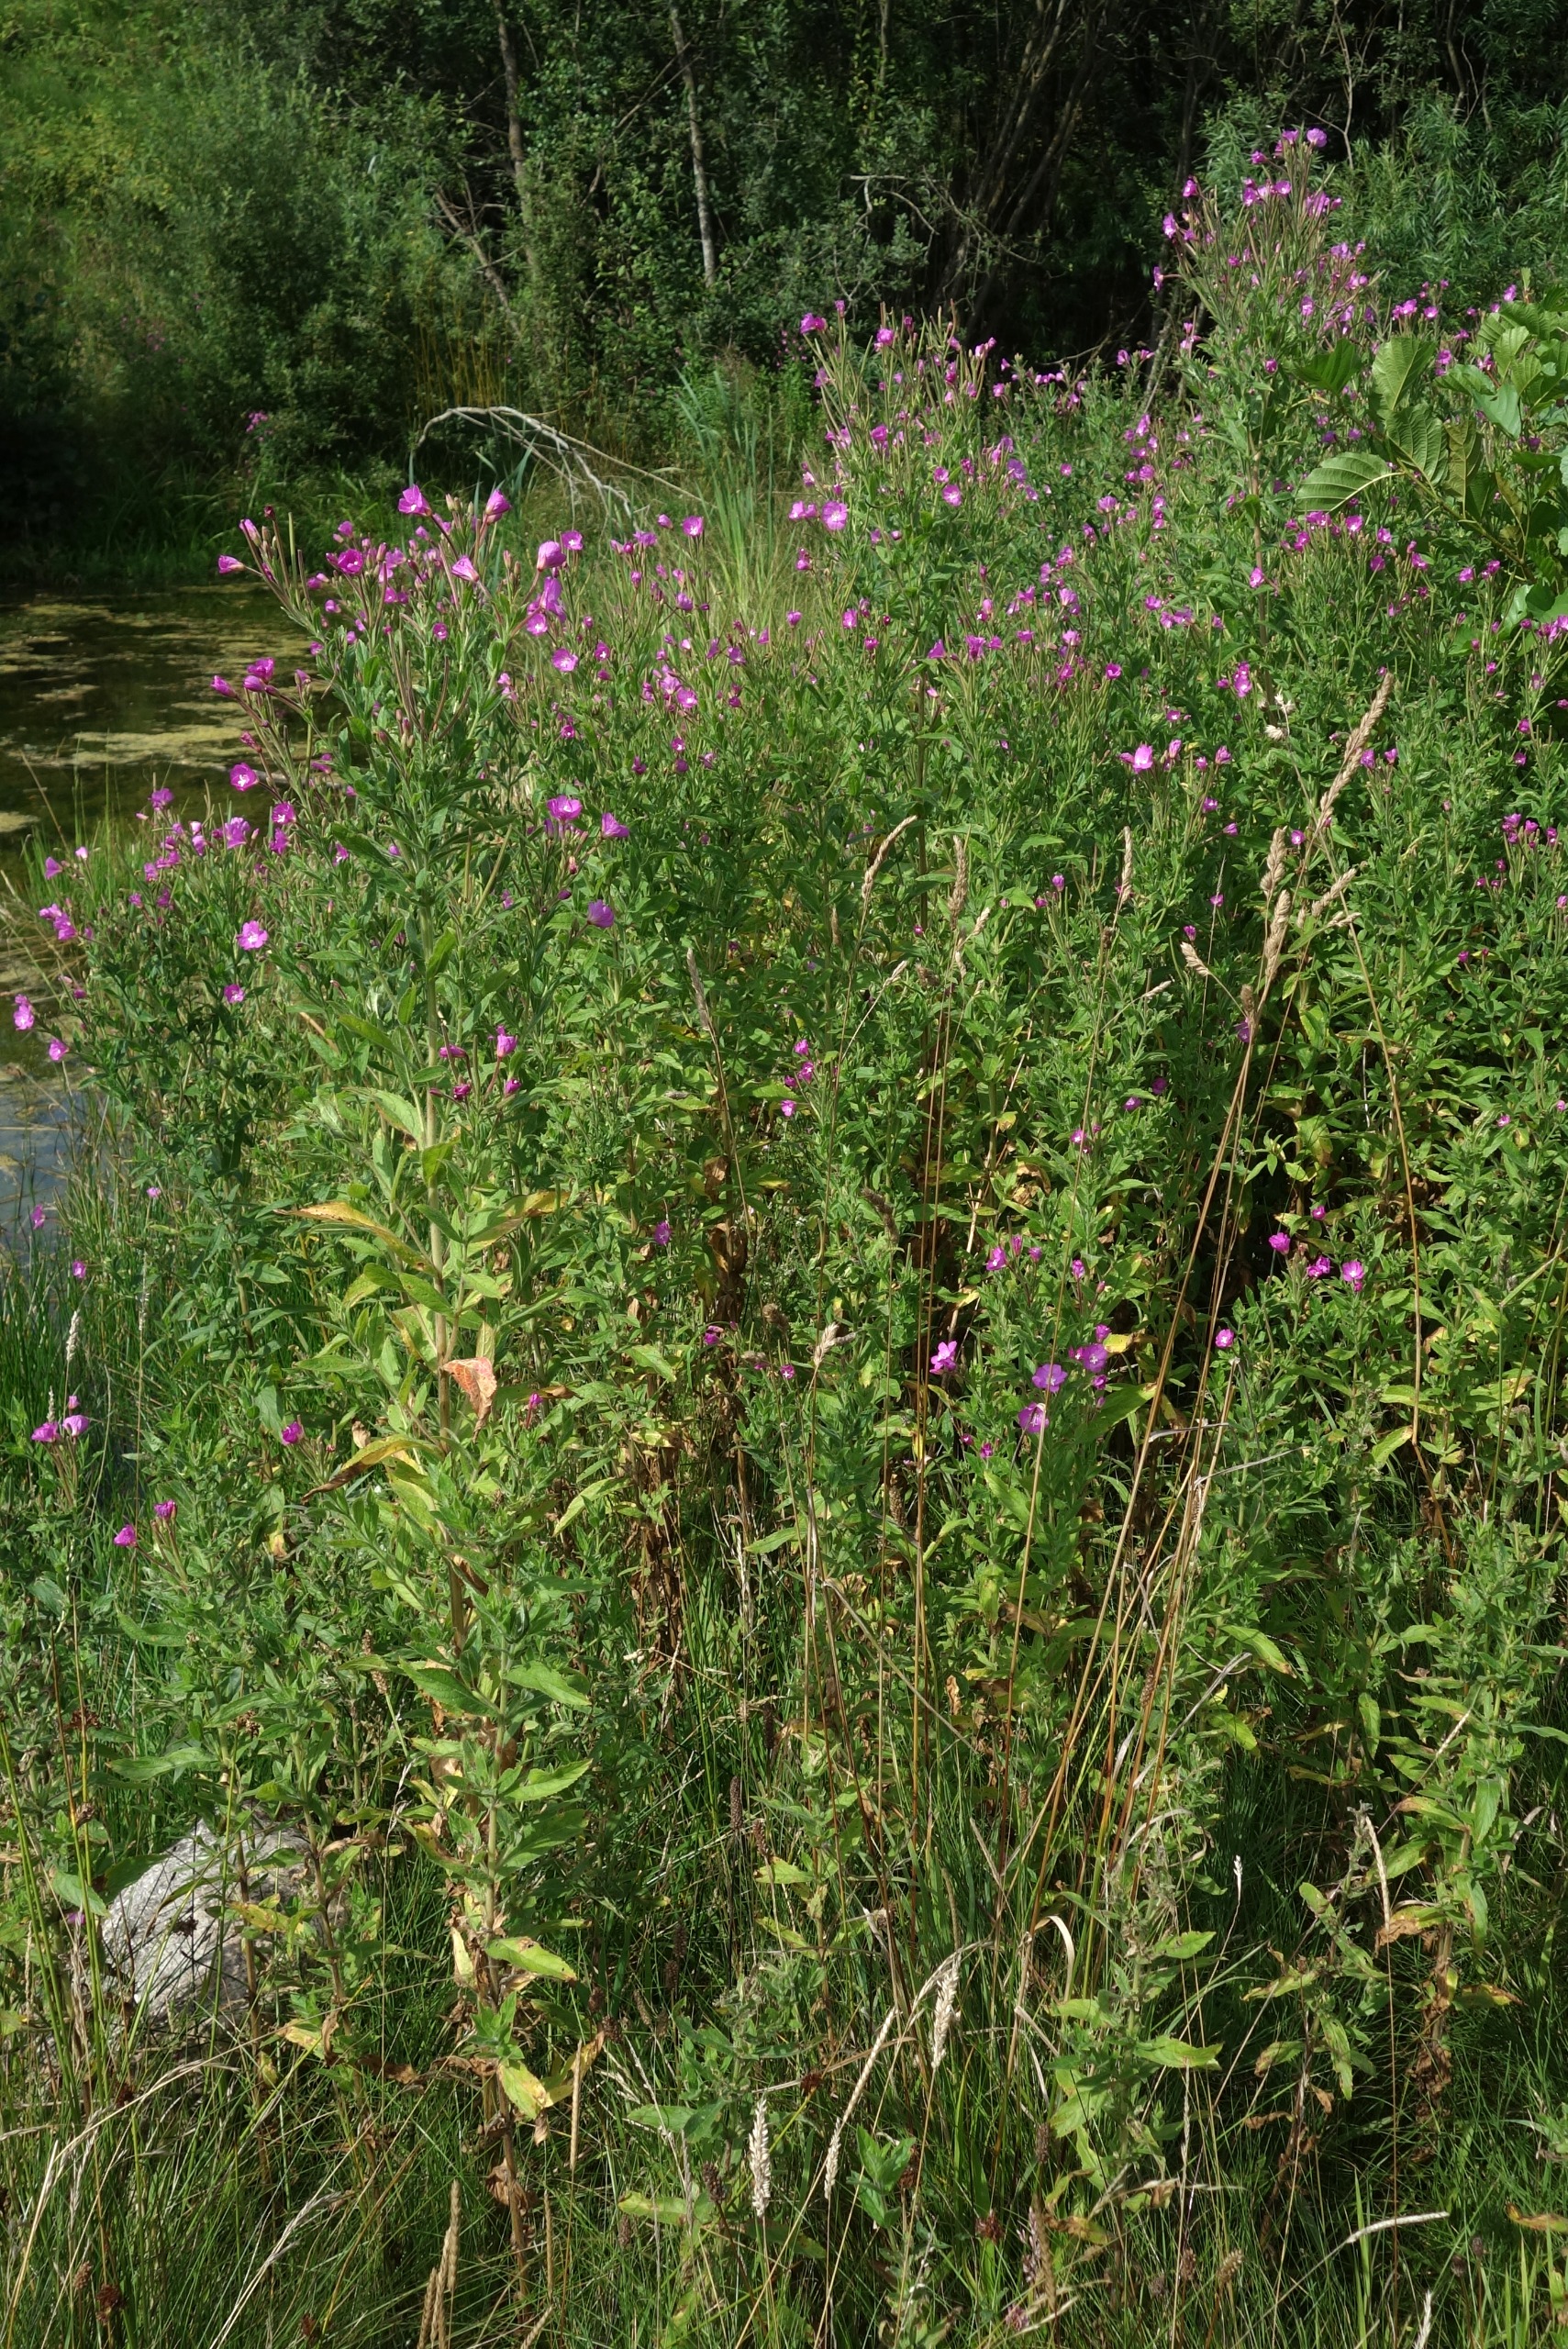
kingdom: Plantae
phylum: Tracheophyta
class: Magnoliopsida
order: Myrtales
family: Onagraceae
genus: Epilobium
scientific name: Epilobium hirsutum
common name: Lådden dueurt
